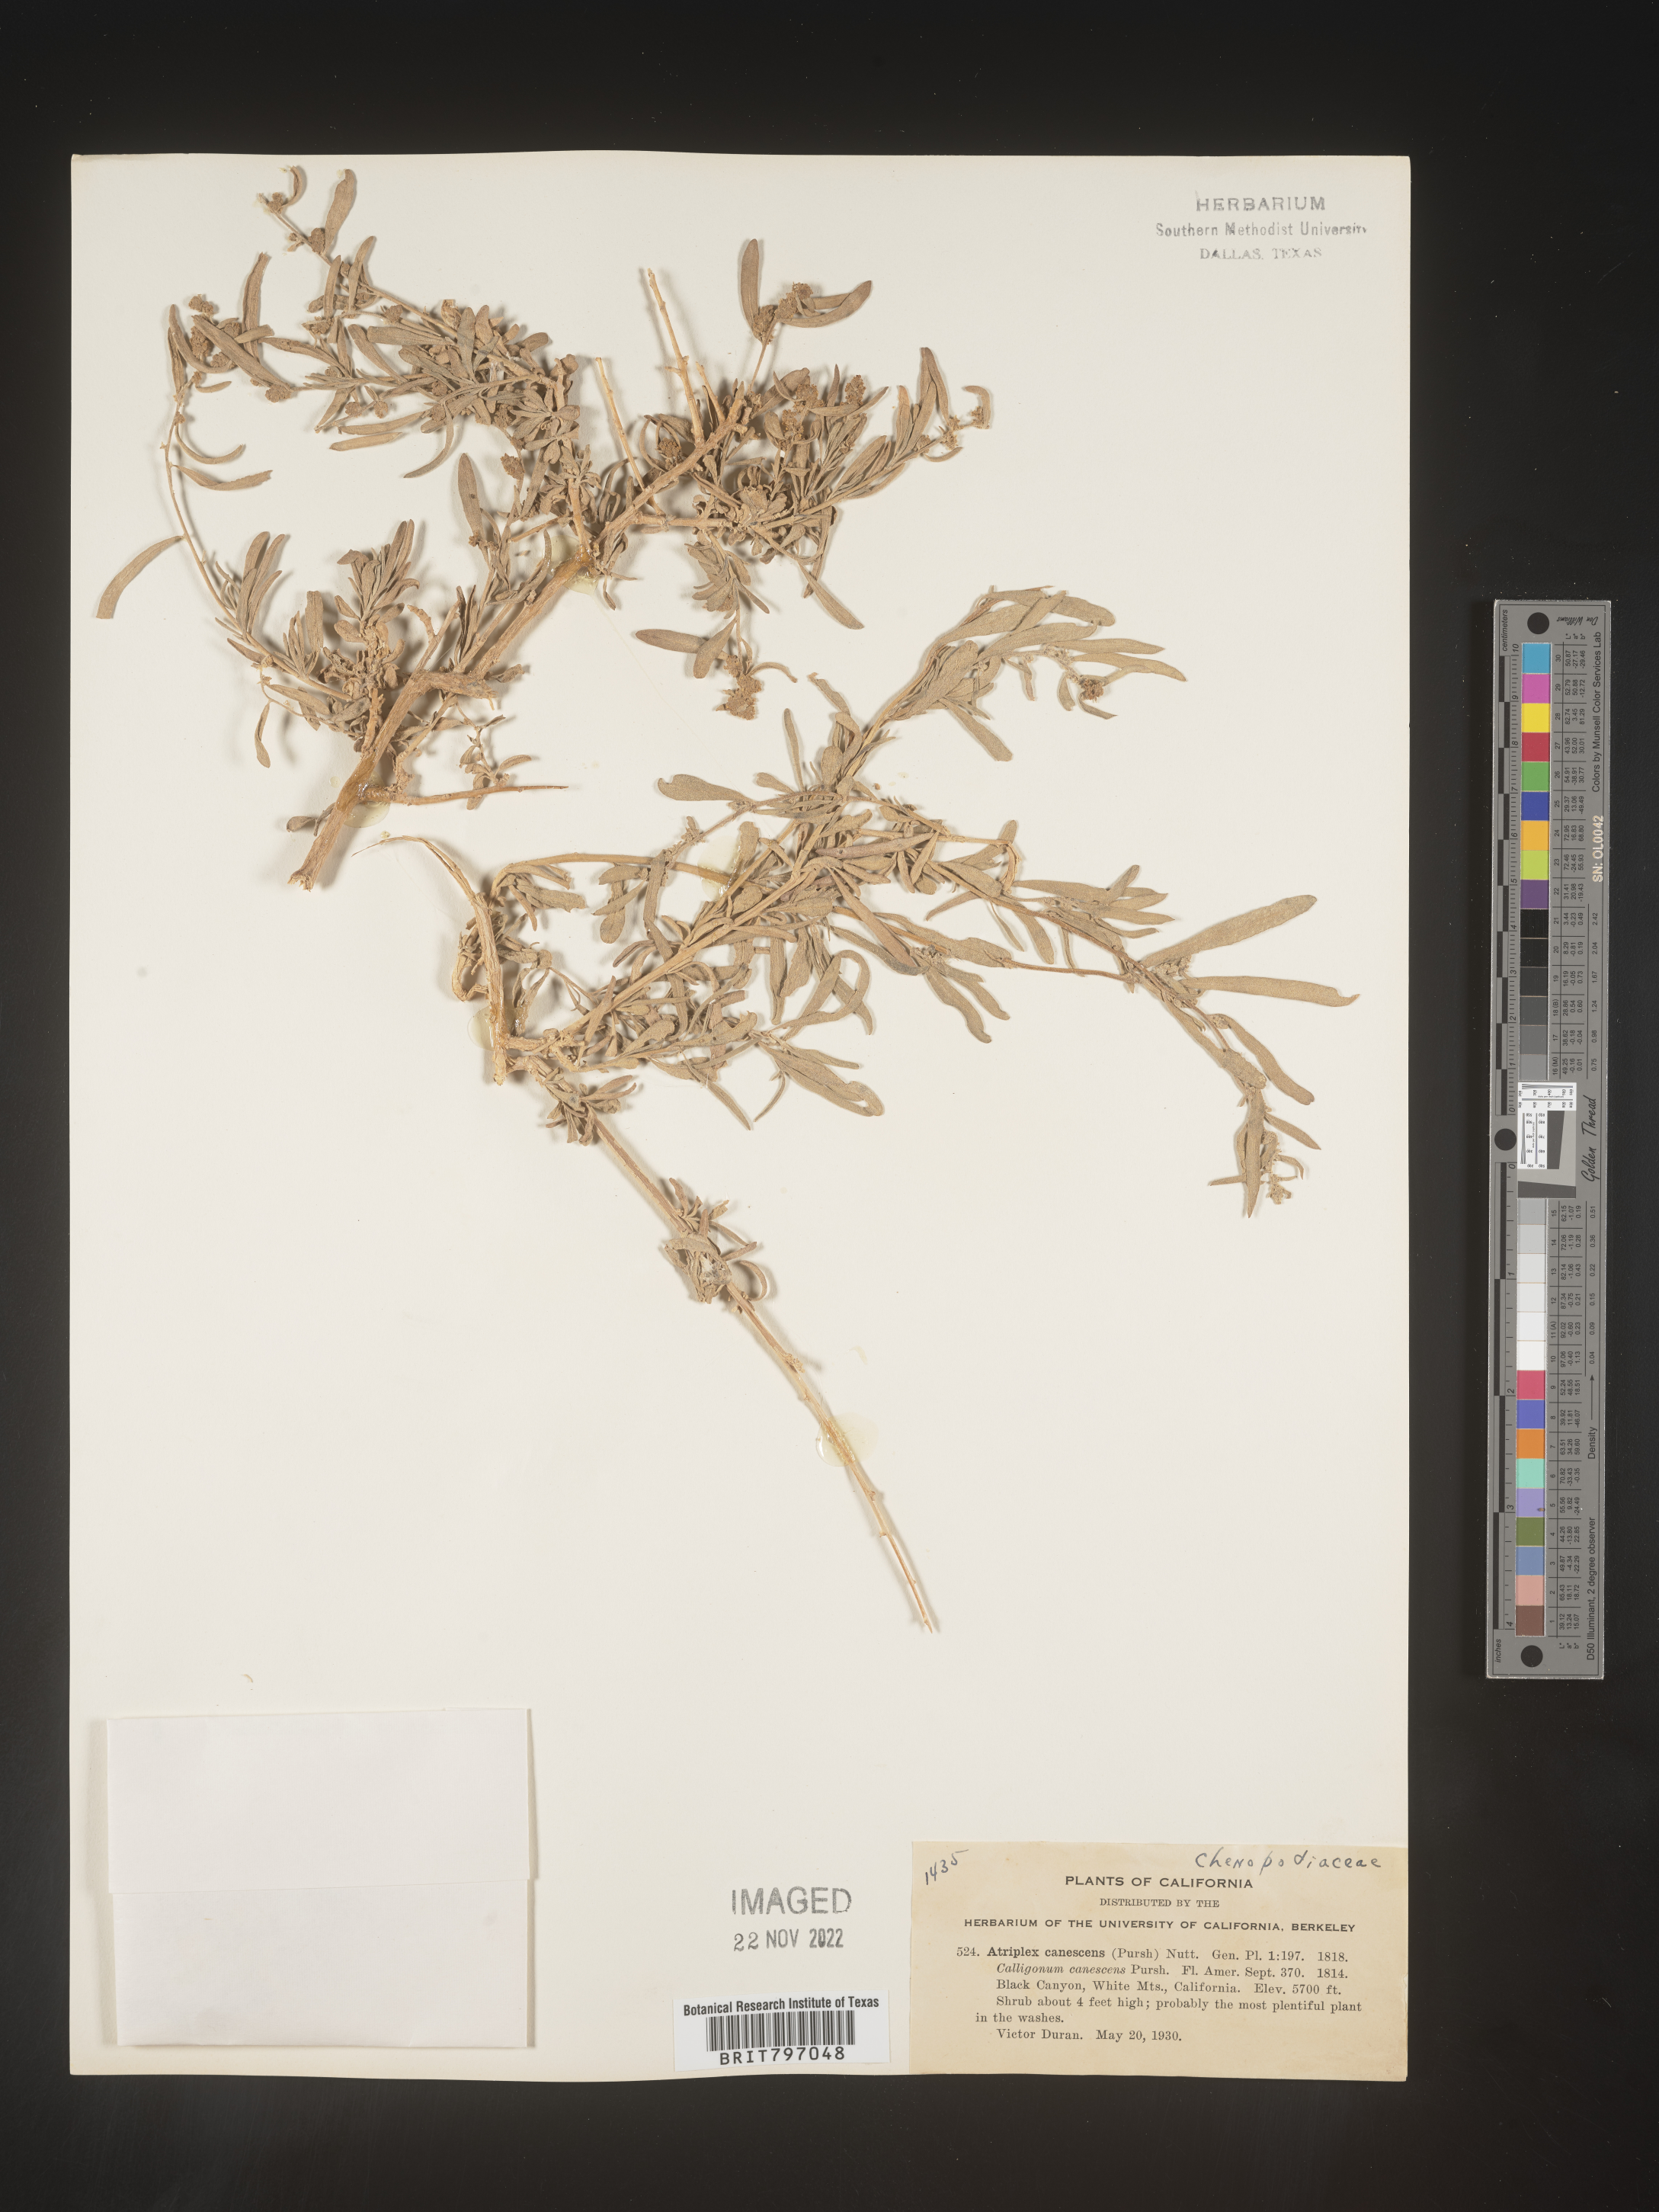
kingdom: Plantae
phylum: Tracheophyta
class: Magnoliopsida
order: Caryophyllales
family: Amaranthaceae
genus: Atriplex
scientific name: Atriplex canescens
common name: Four-wing saltbush
